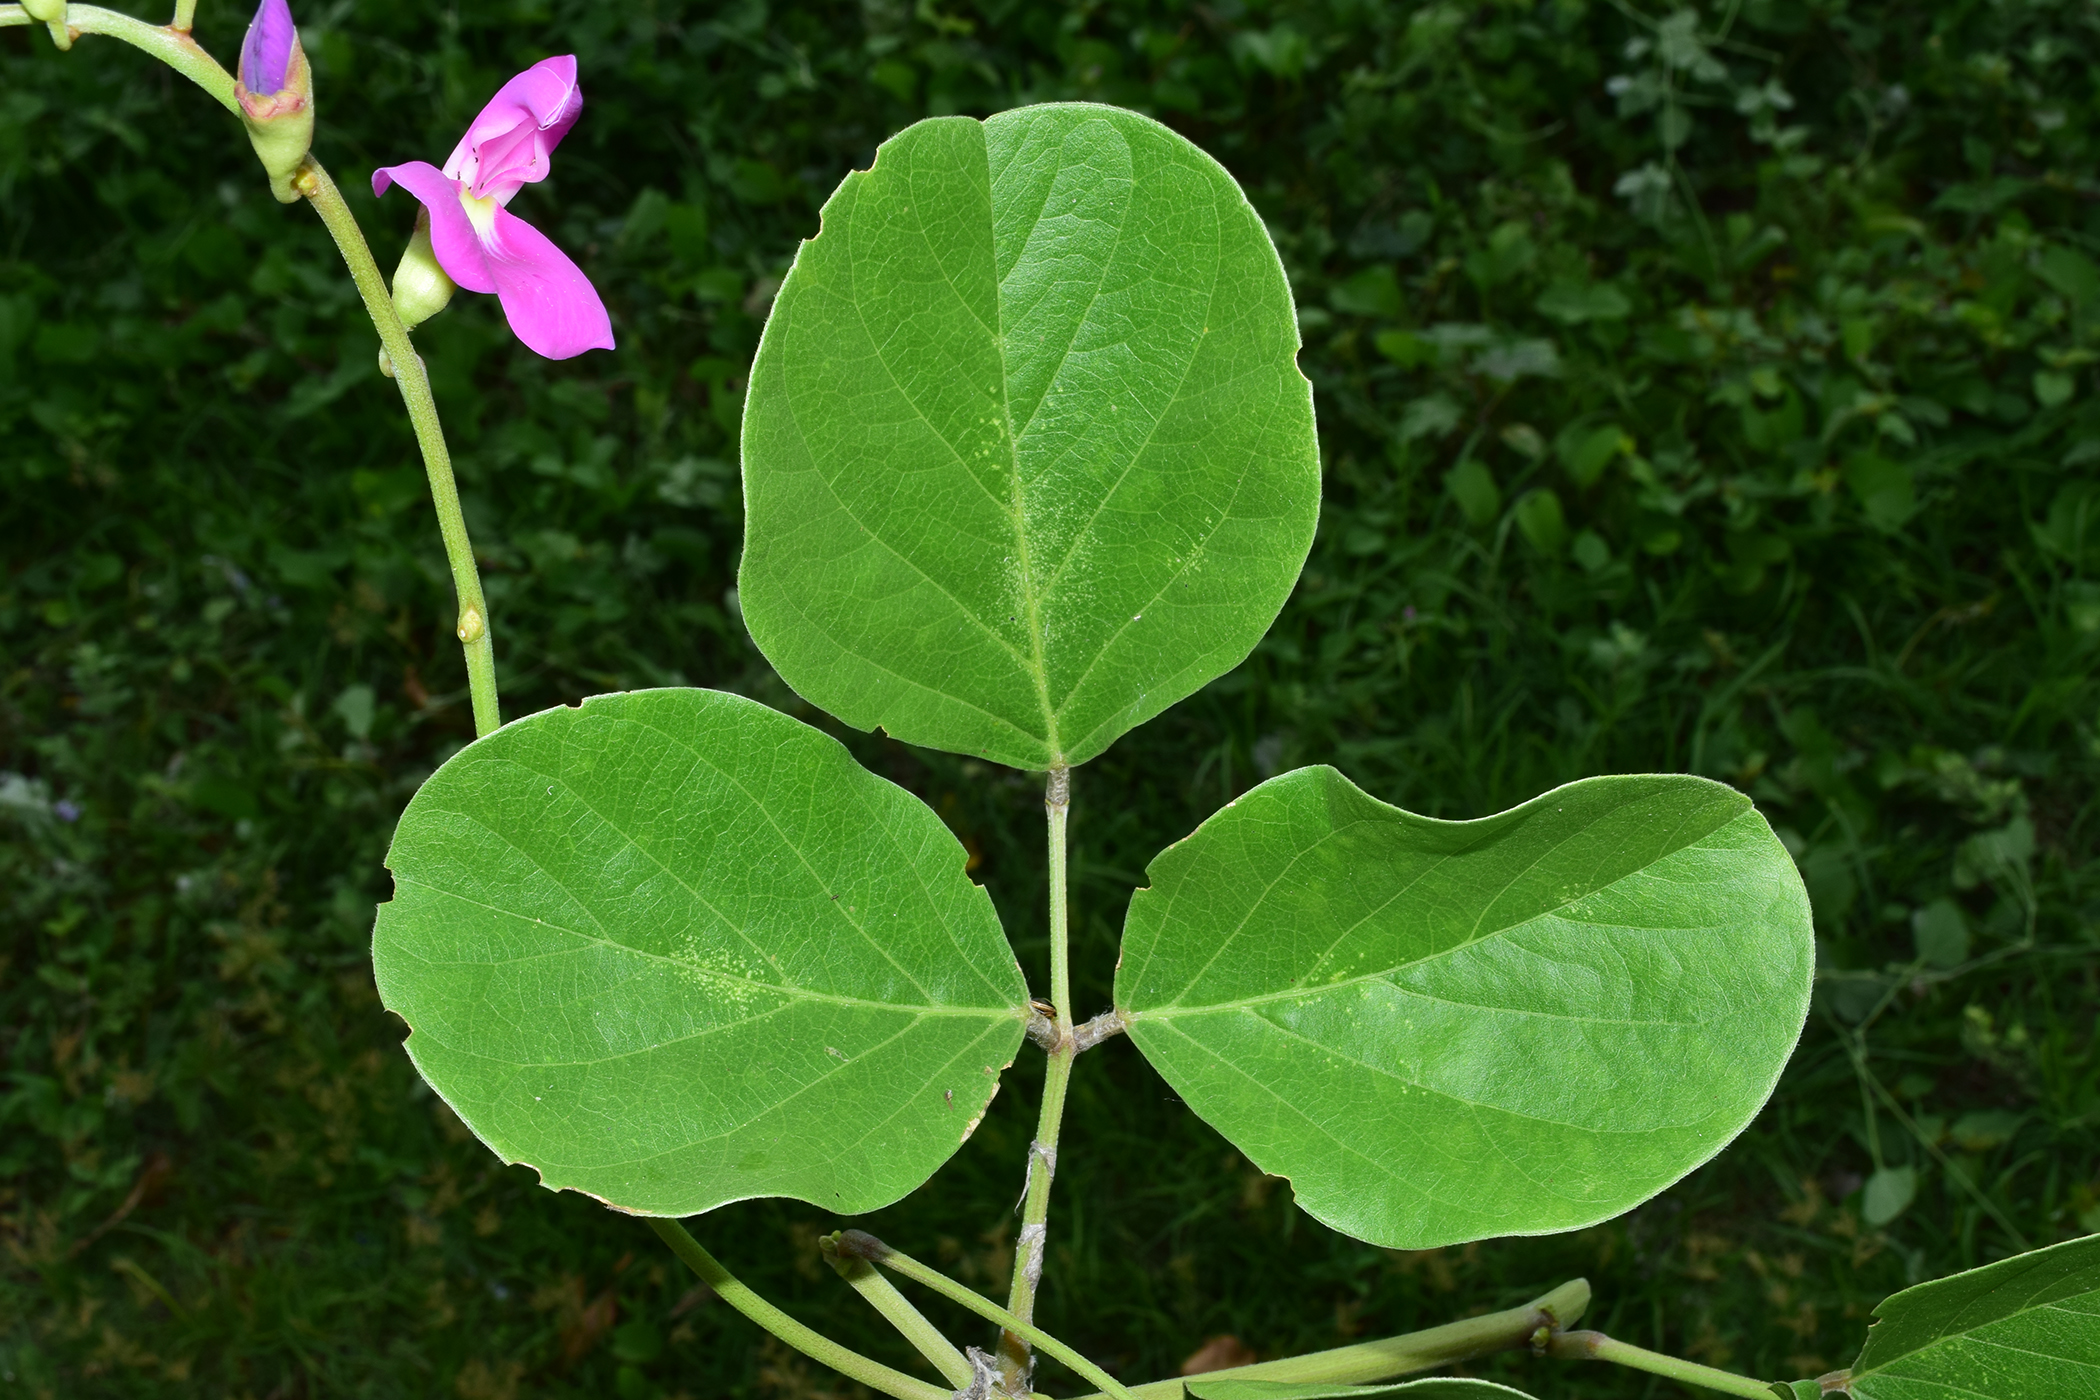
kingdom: Plantae
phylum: Tracheophyta
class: Magnoliopsida
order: Fabales
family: Fabaceae
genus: Canavalia
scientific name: Canavalia rosea
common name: Beach-bean
